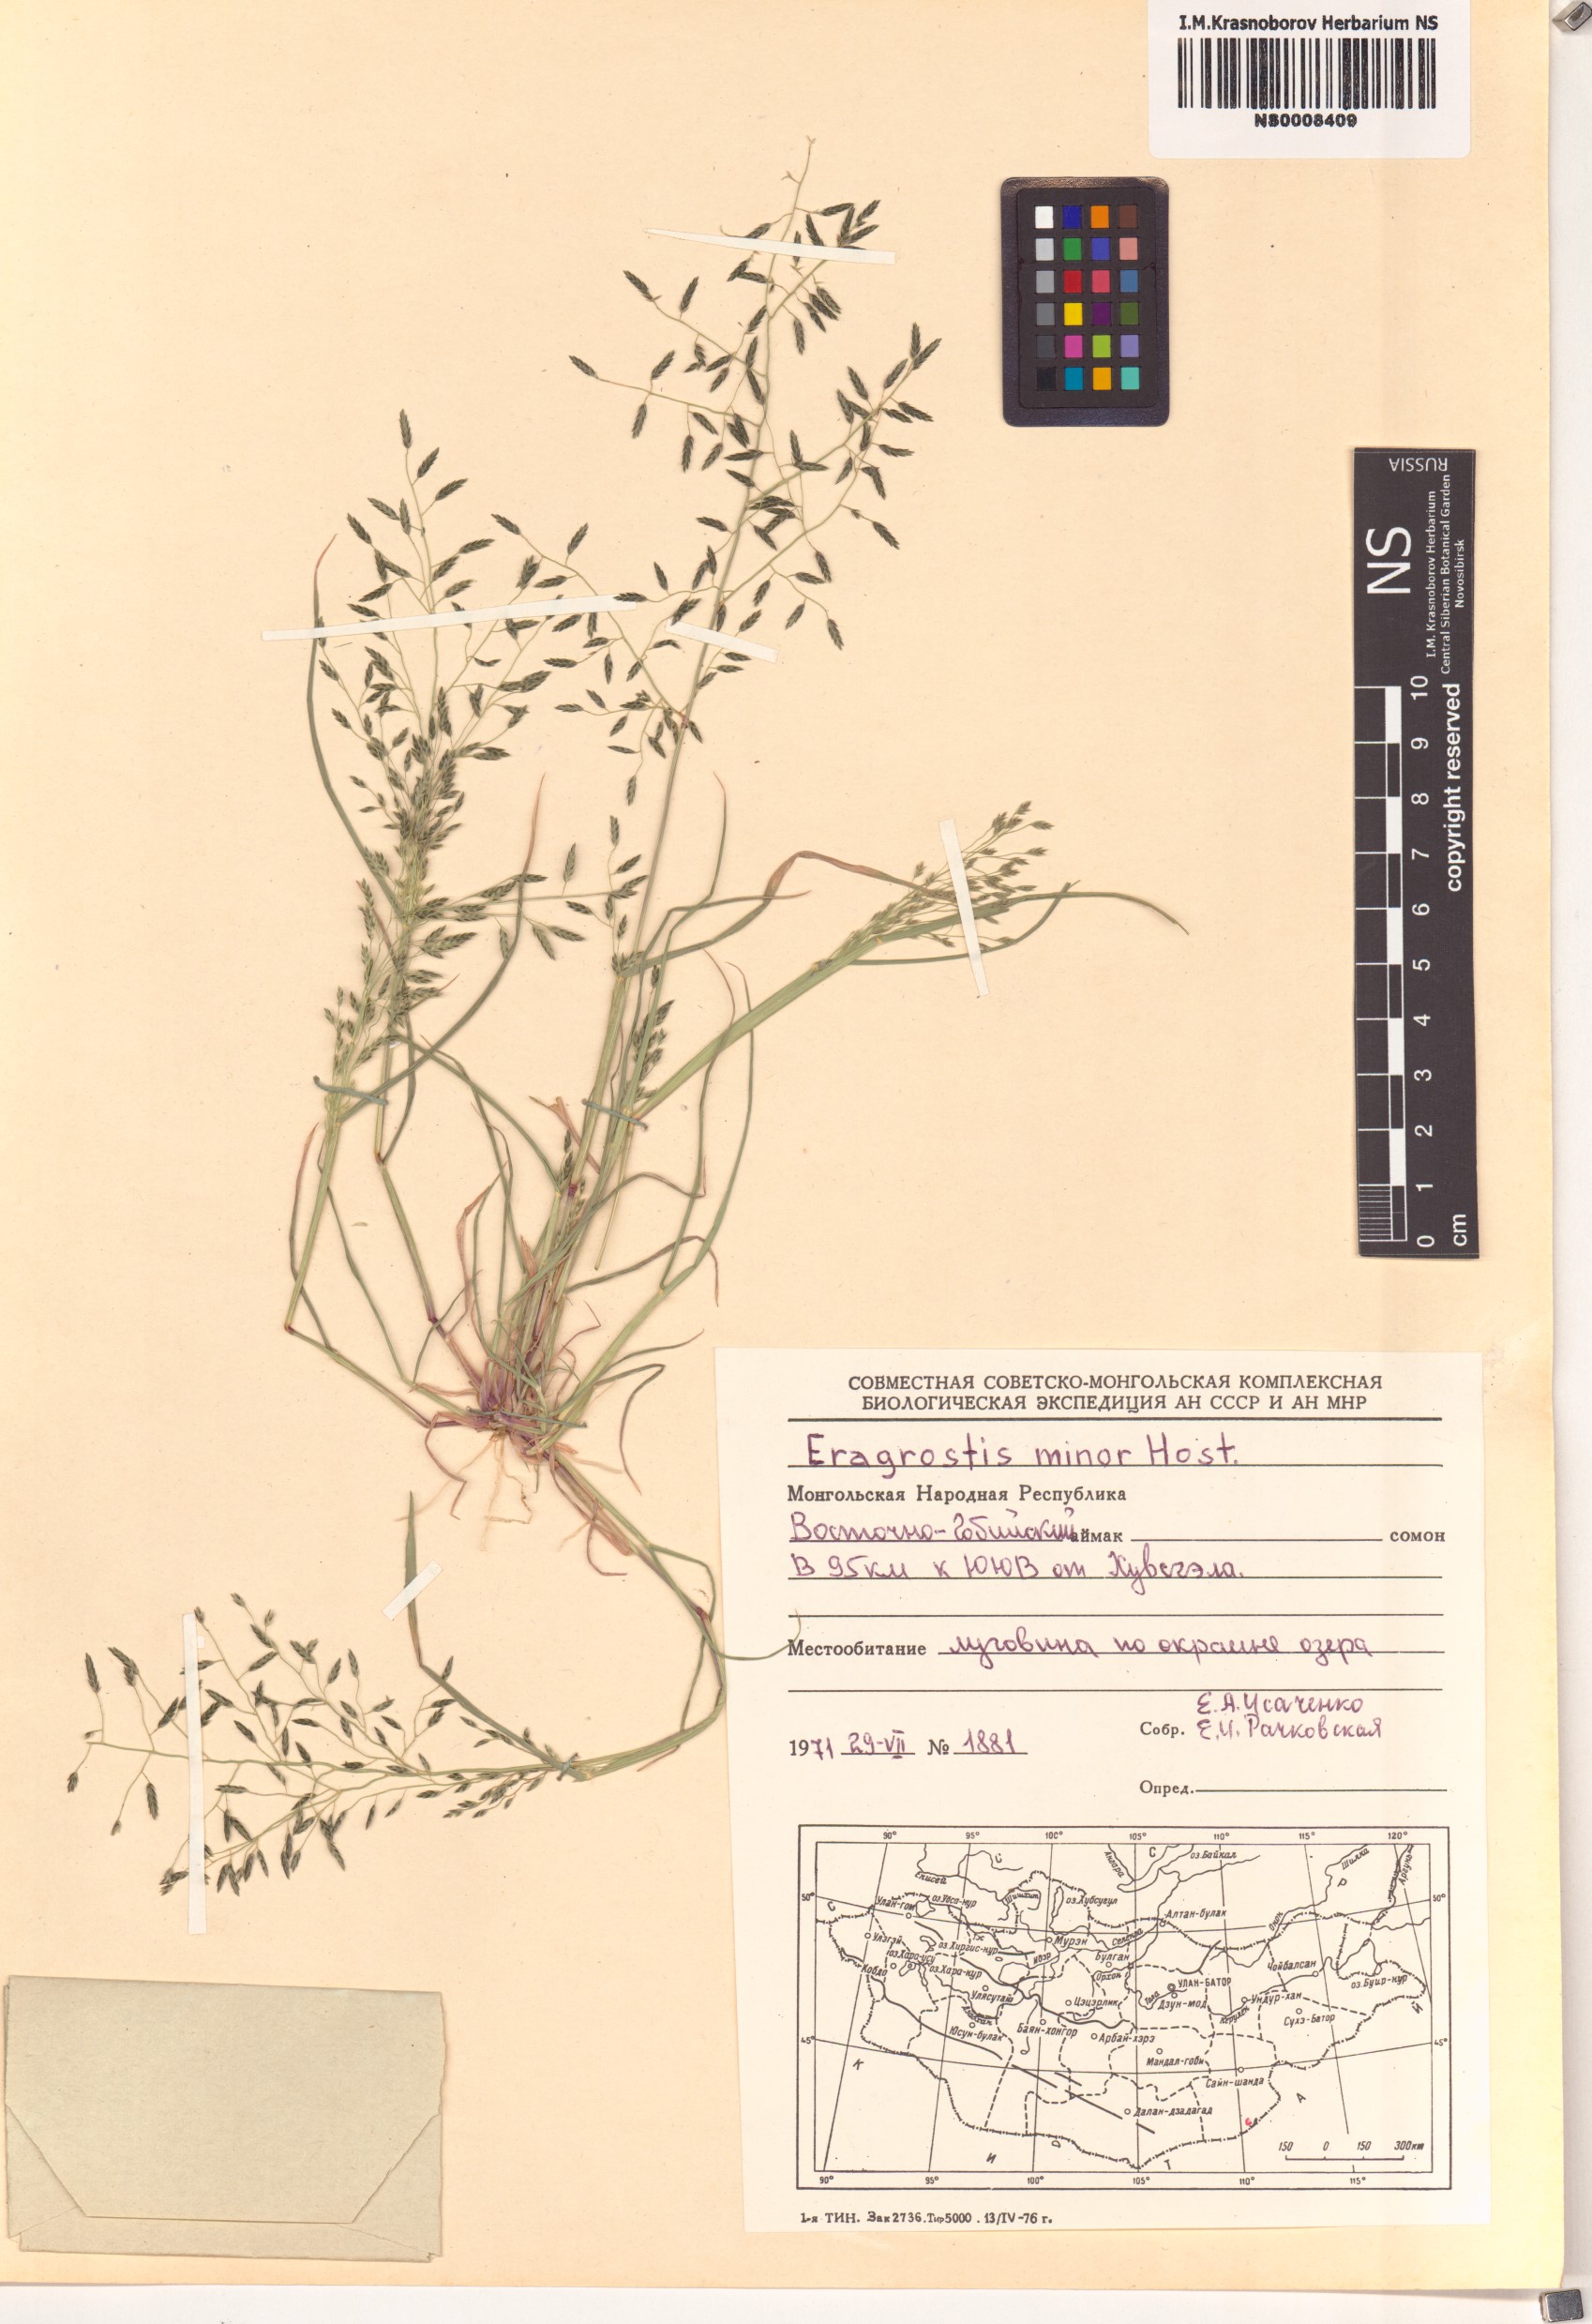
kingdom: Plantae
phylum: Tracheophyta
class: Liliopsida
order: Poales
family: Poaceae
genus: Eragrostis
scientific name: Eragrostis minor
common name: Small love-grass
